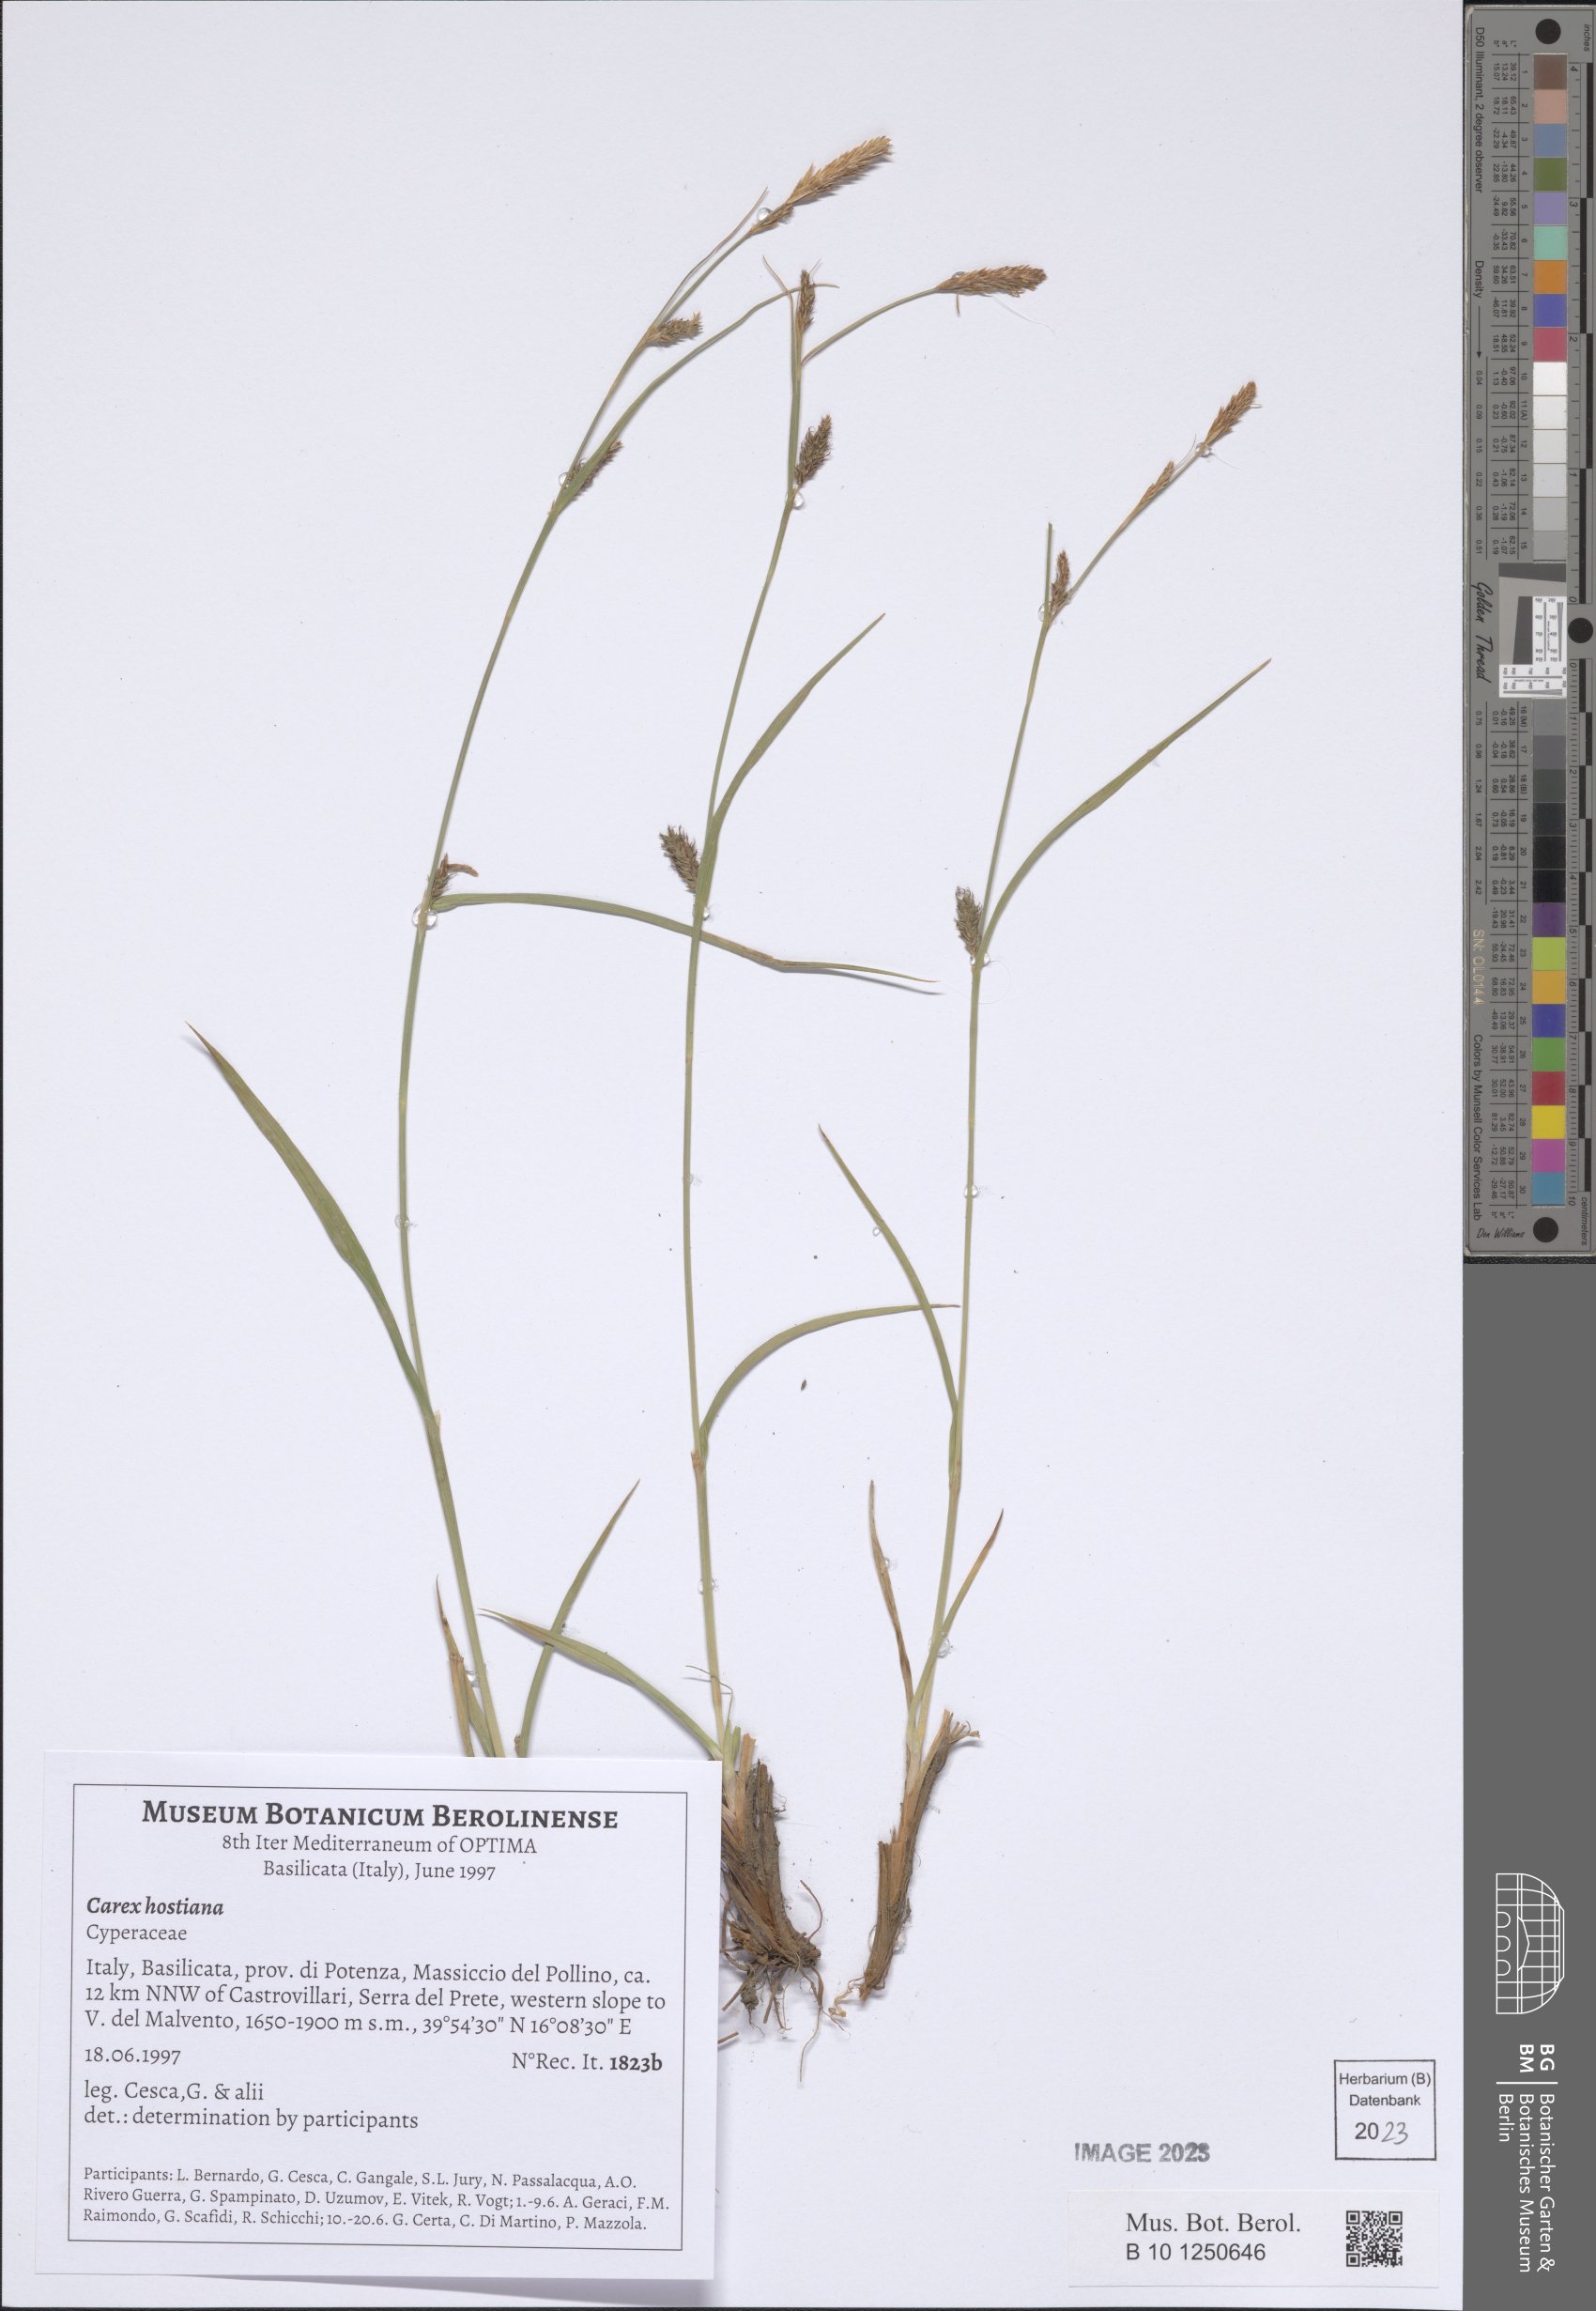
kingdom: Plantae
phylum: Tracheophyta
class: Liliopsida
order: Poales
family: Cyperaceae
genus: Carex
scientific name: Carex hostiana
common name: Tawny sedge
